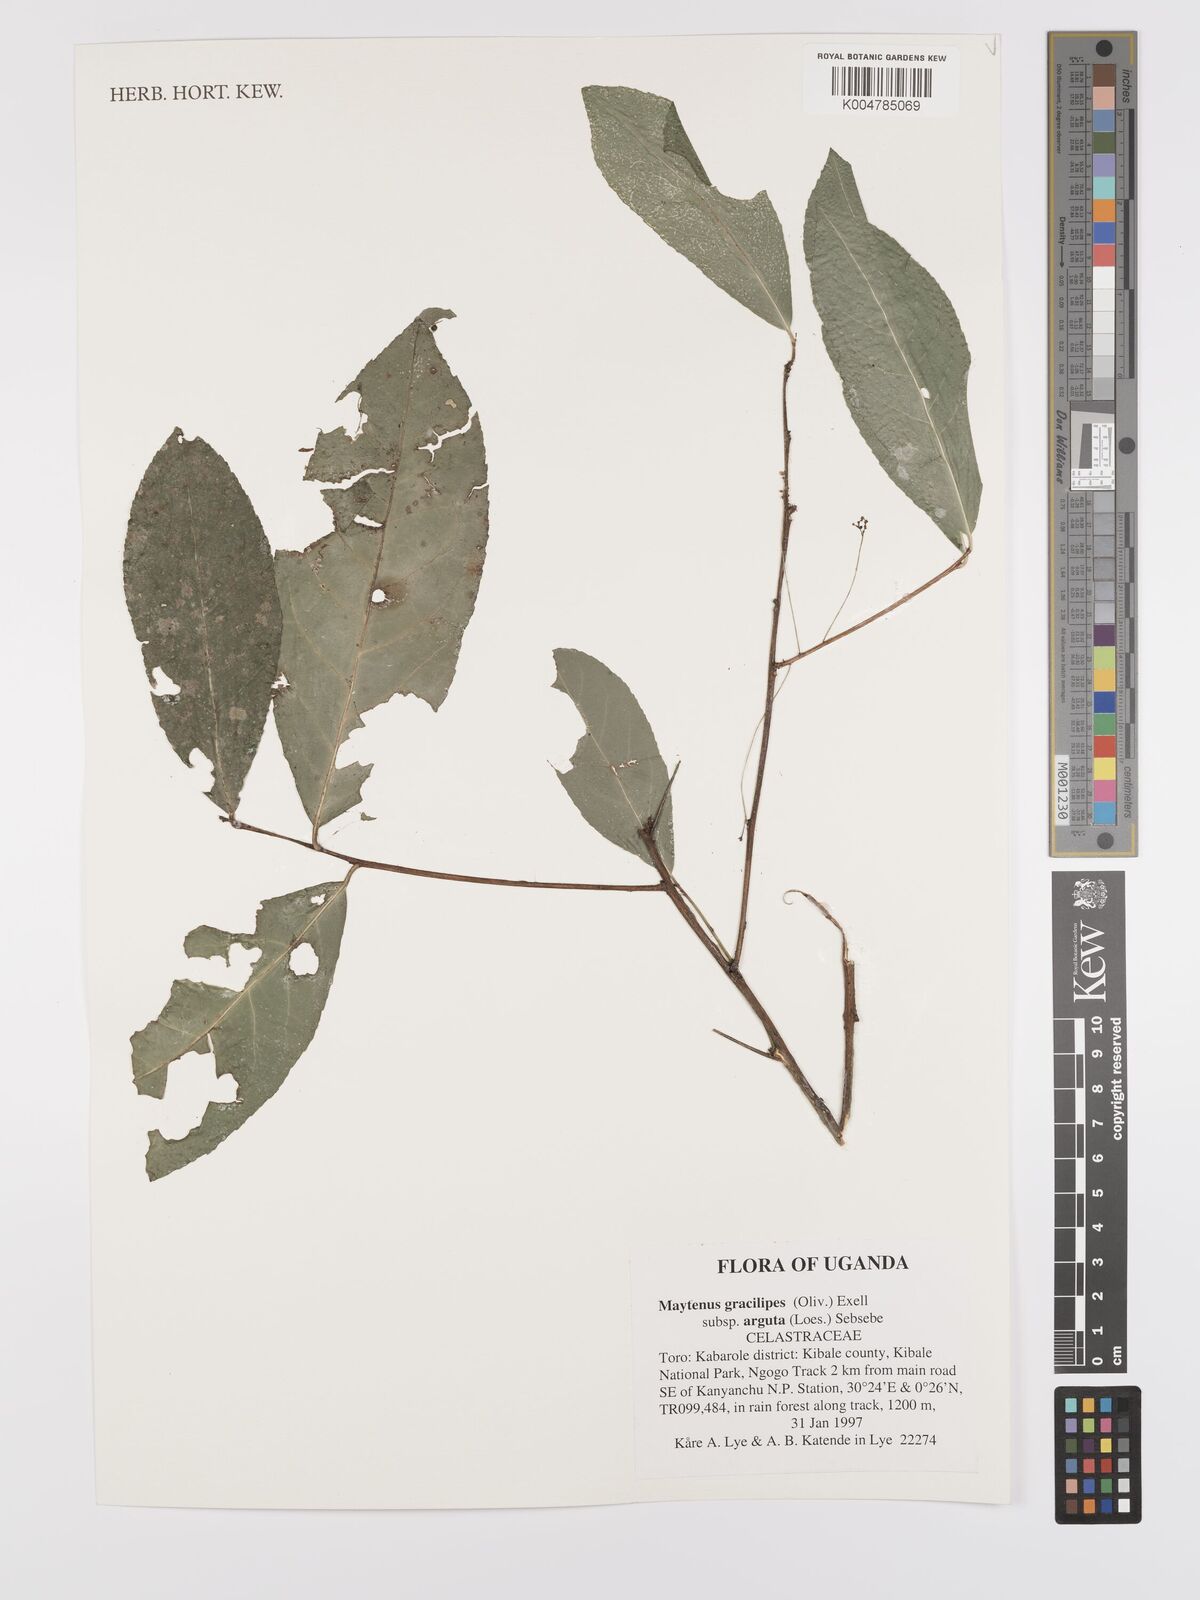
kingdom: Plantae
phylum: Tracheophyta
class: Magnoliopsida
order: Celastrales
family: Celastraceae
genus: Gymnosporia
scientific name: Gymnosporia gracilipes
